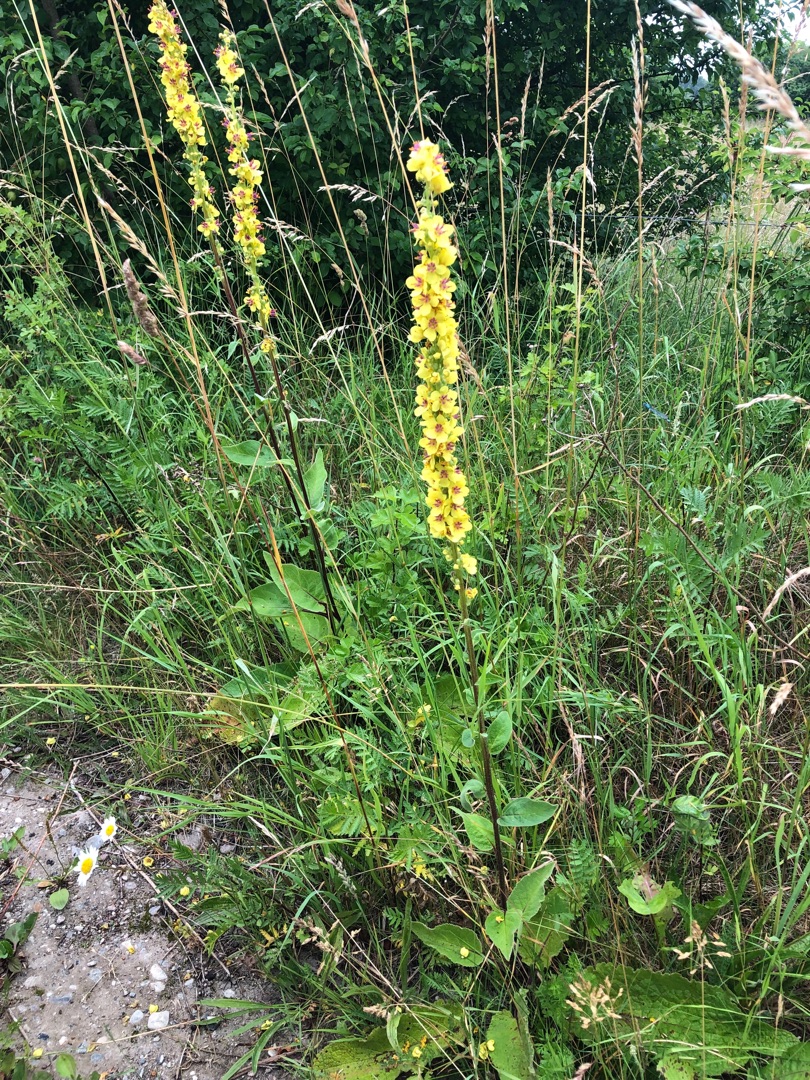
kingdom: Plantae
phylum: Tracheophyta
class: Magnoliopsida
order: Lamiales
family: Scrophulariaceae
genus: Verbascum
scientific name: Verbascum nigrum
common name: Mørk kongelys
